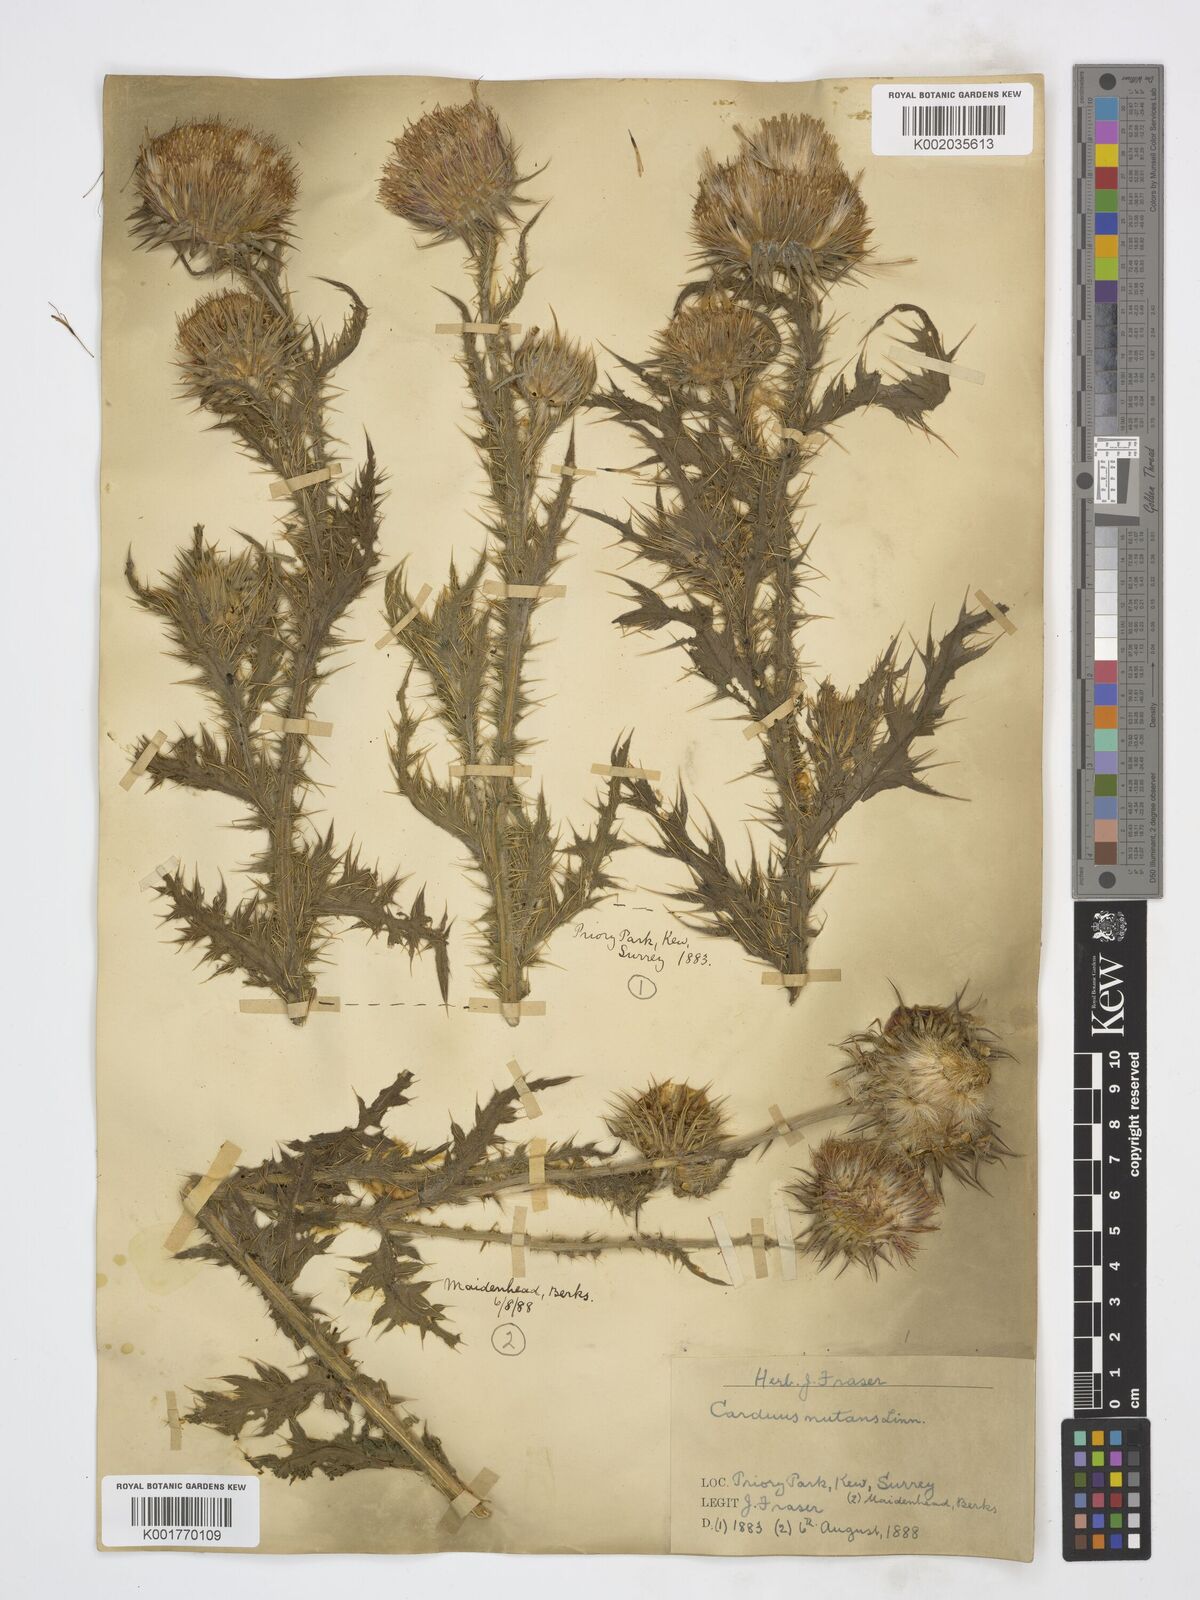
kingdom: Plantae
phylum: Tracheophyta
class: Magnoliopsida
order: Asterales
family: Asteraceae
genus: Carduus
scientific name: Carduus nutans
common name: Musk thistle
